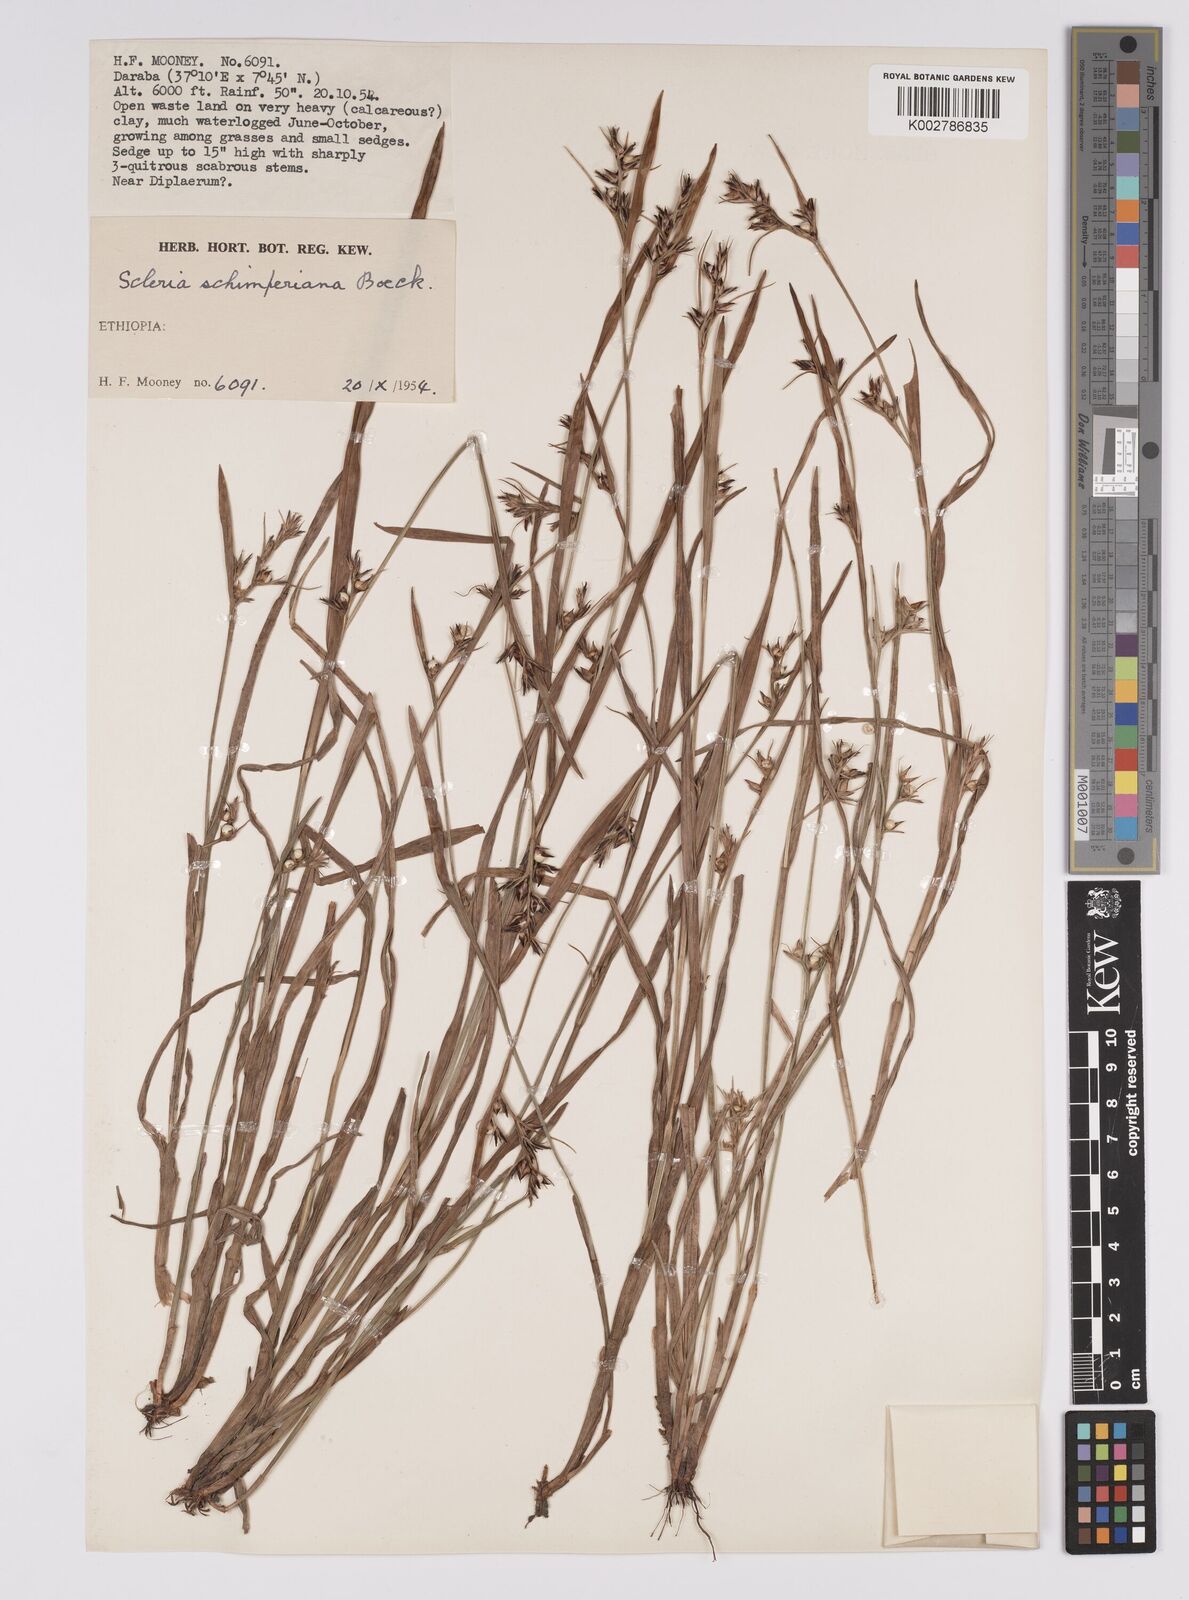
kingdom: Plantae
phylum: Tracheophyta
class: Liliopsida
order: Poales
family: Cyperaceae
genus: Scleria
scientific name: Scleria schimperiana
